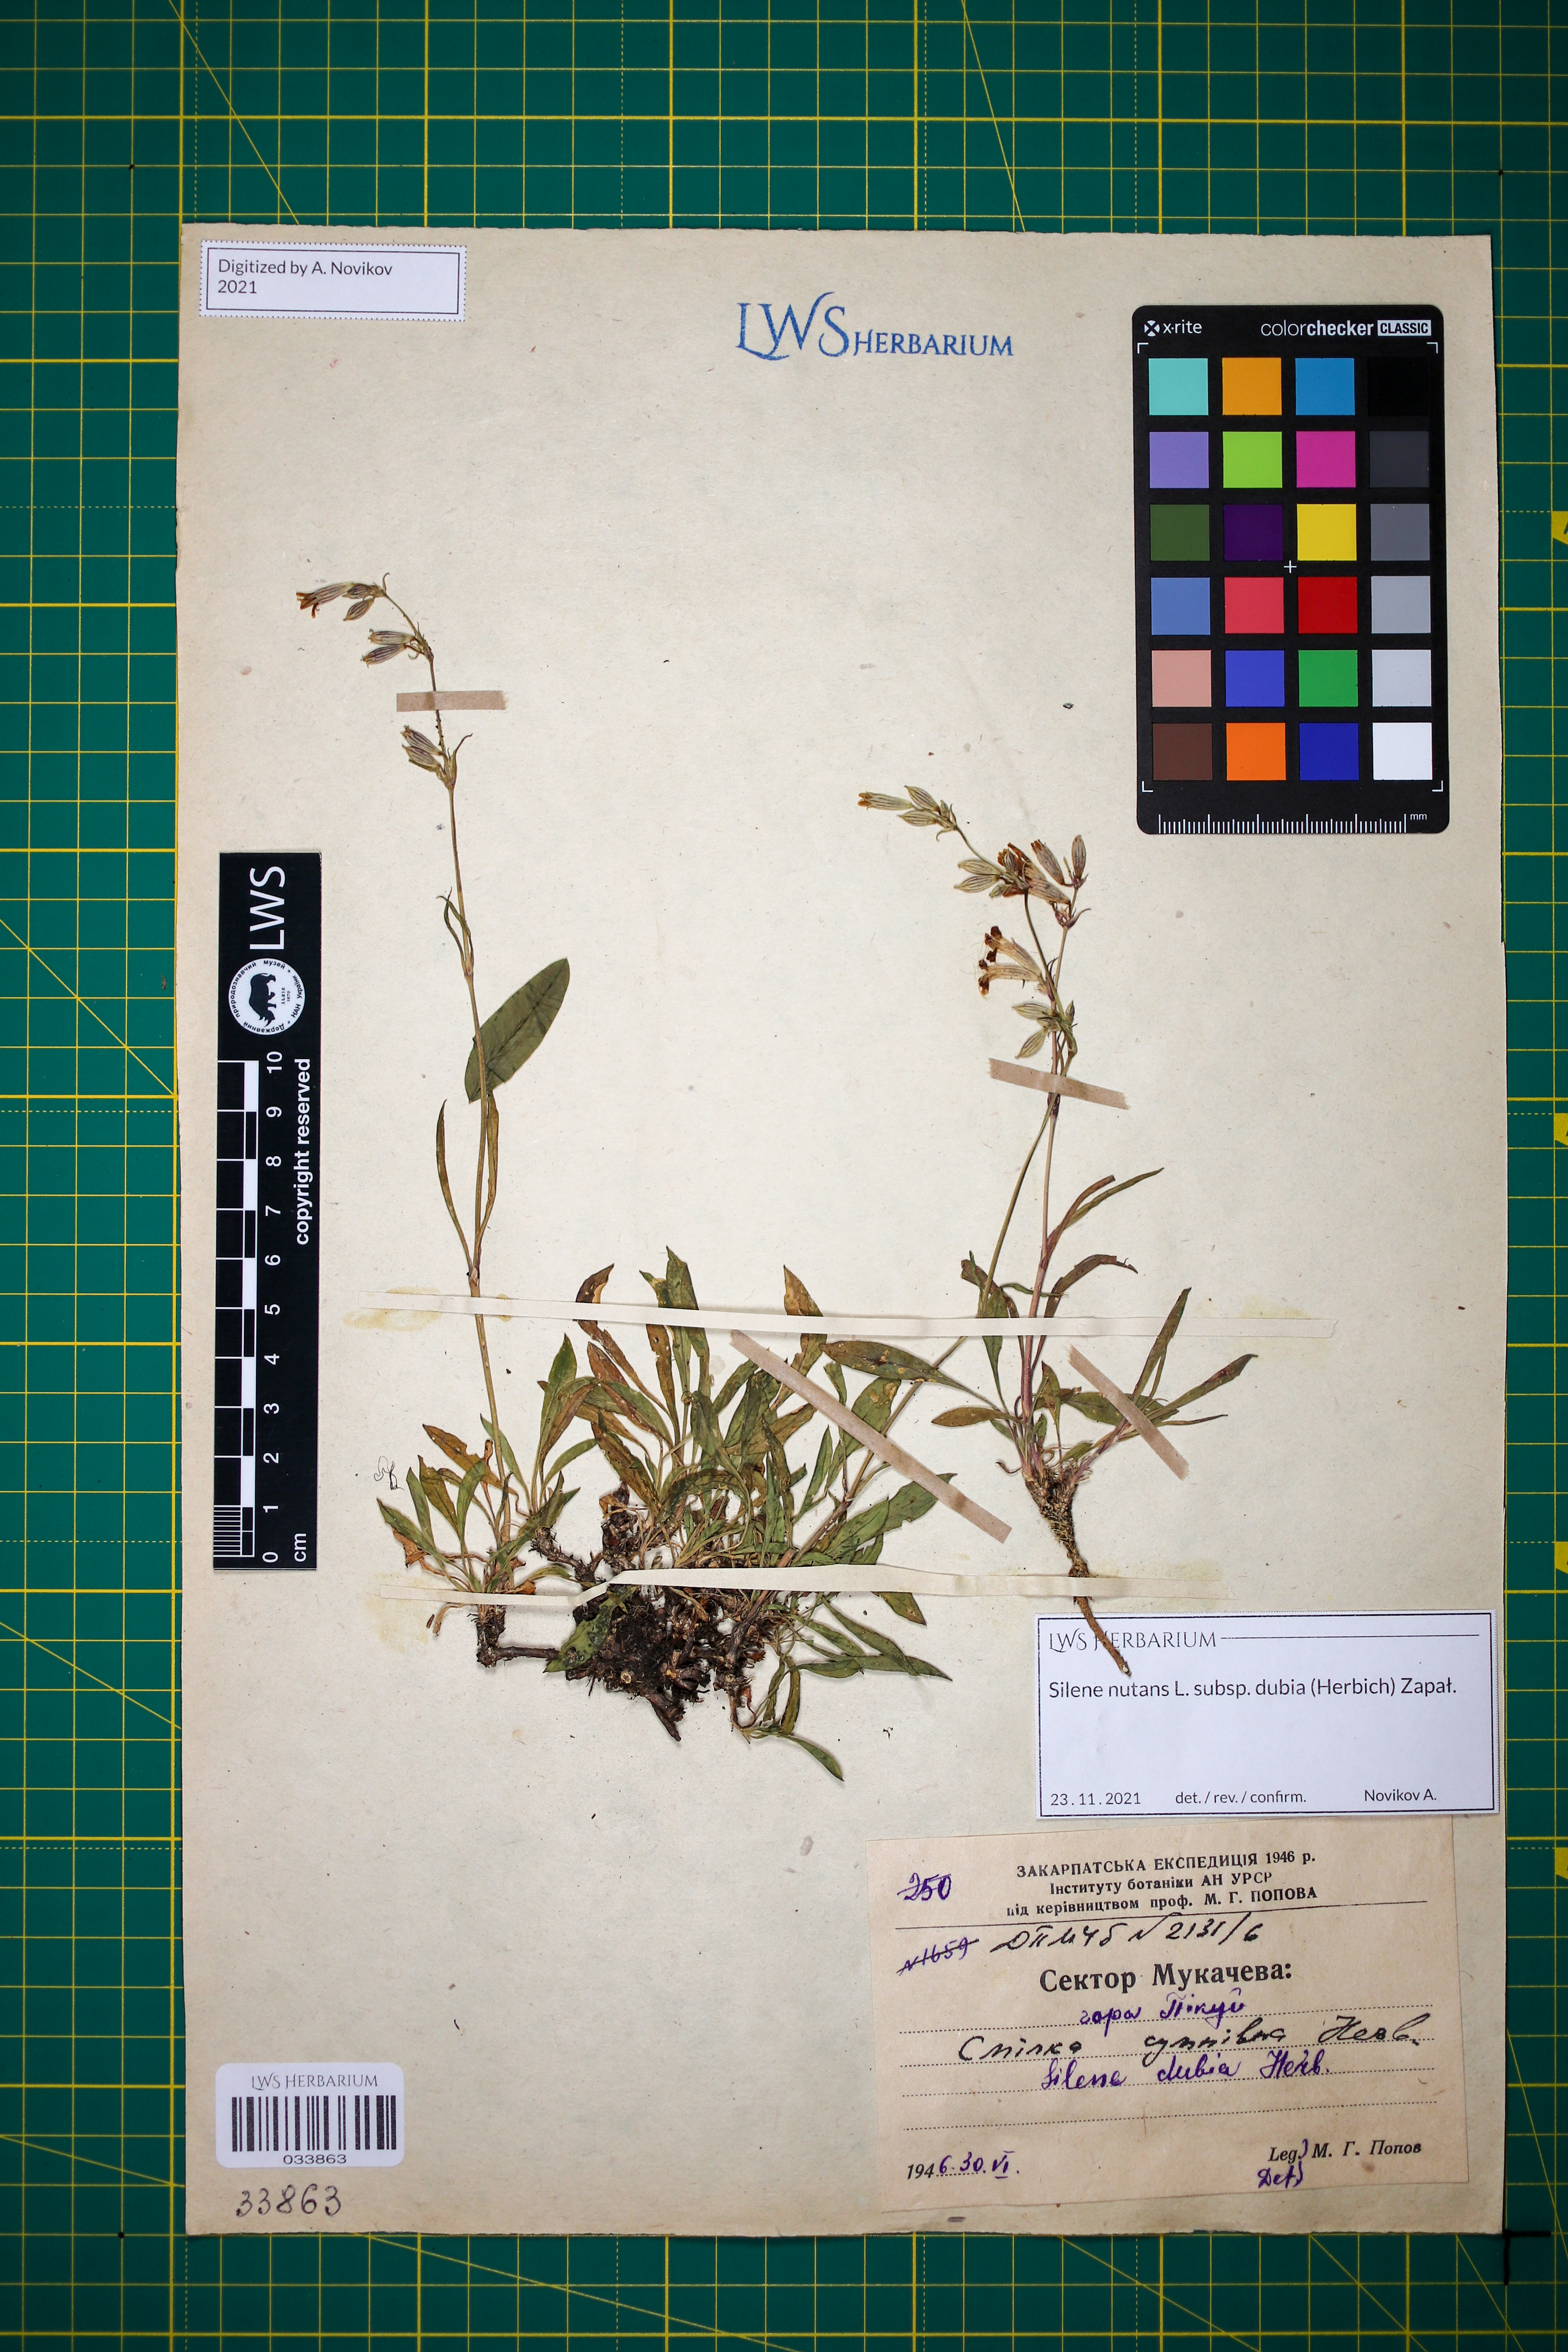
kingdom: Plantae
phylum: Tracheophyta
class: Magnoliopsida
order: Caryophyllales
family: Caryophyllaceae
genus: Silene
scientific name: Silene nutans
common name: Nottingham catchfly
